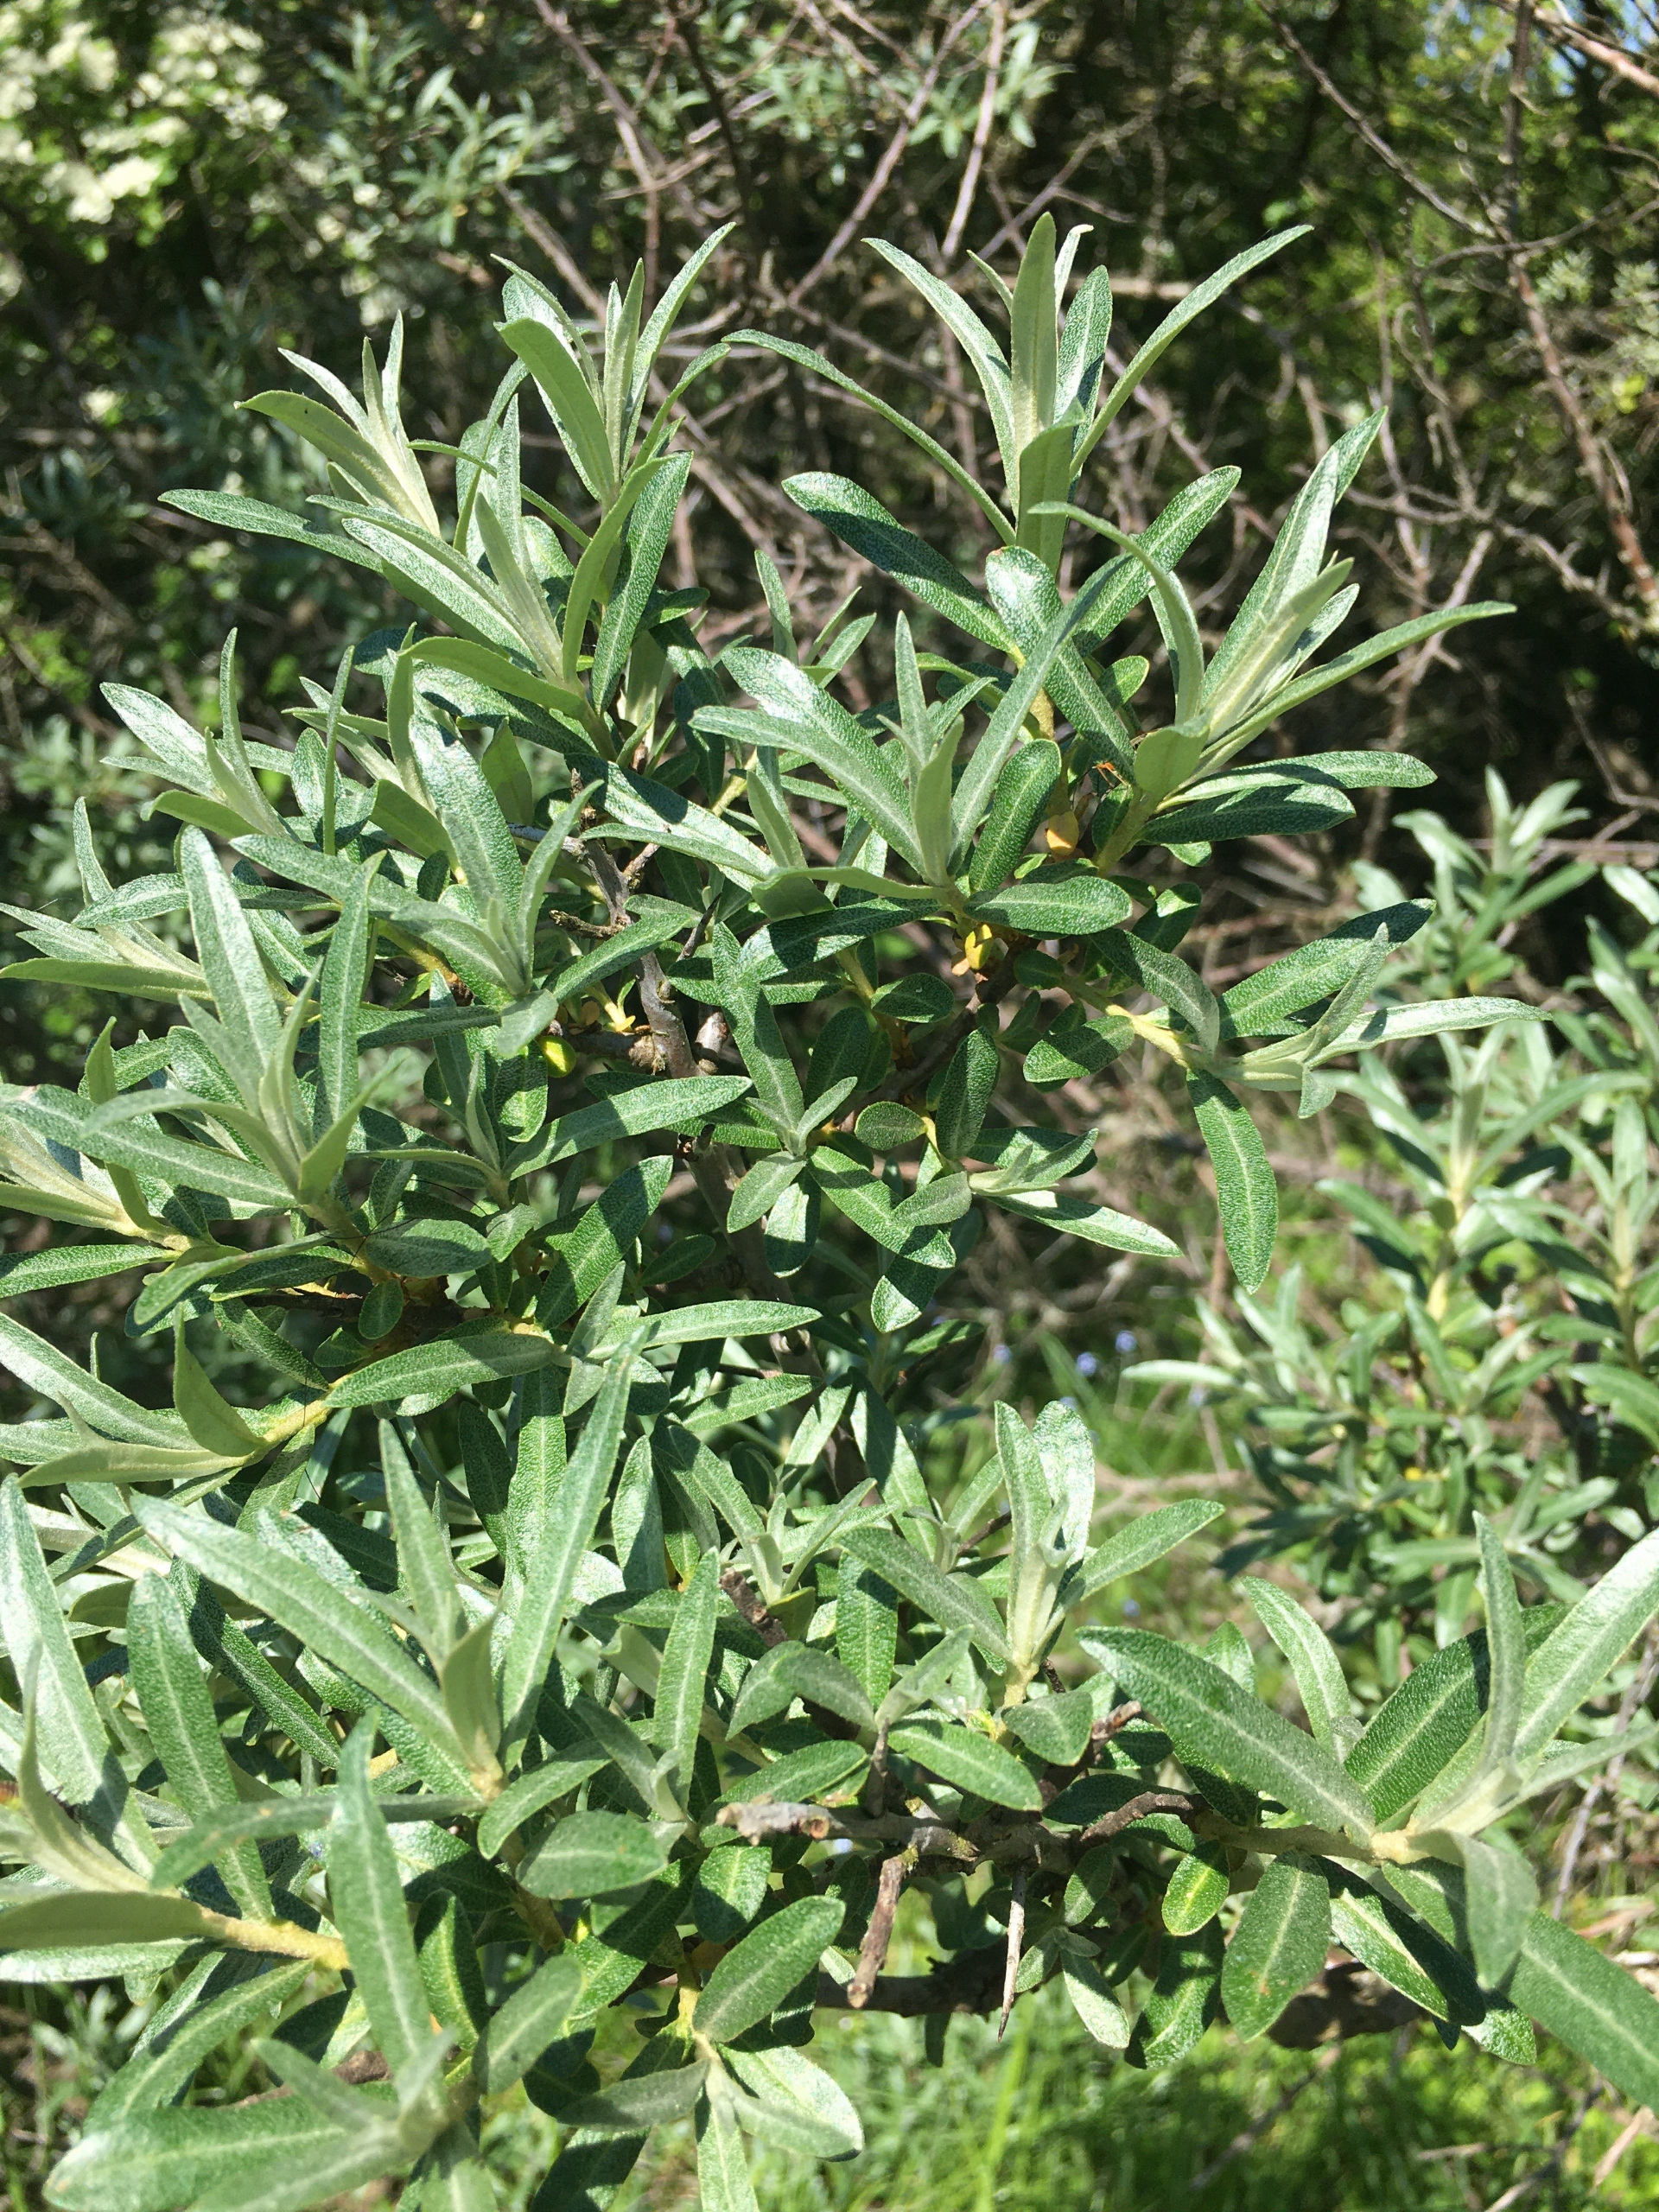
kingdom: Plantae
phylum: Tracheophyta
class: Magnoliopsida
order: Rosales
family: Elaeagnaceae
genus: Hippophae
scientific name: Hippophae rhamnoides
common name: Havtorn
